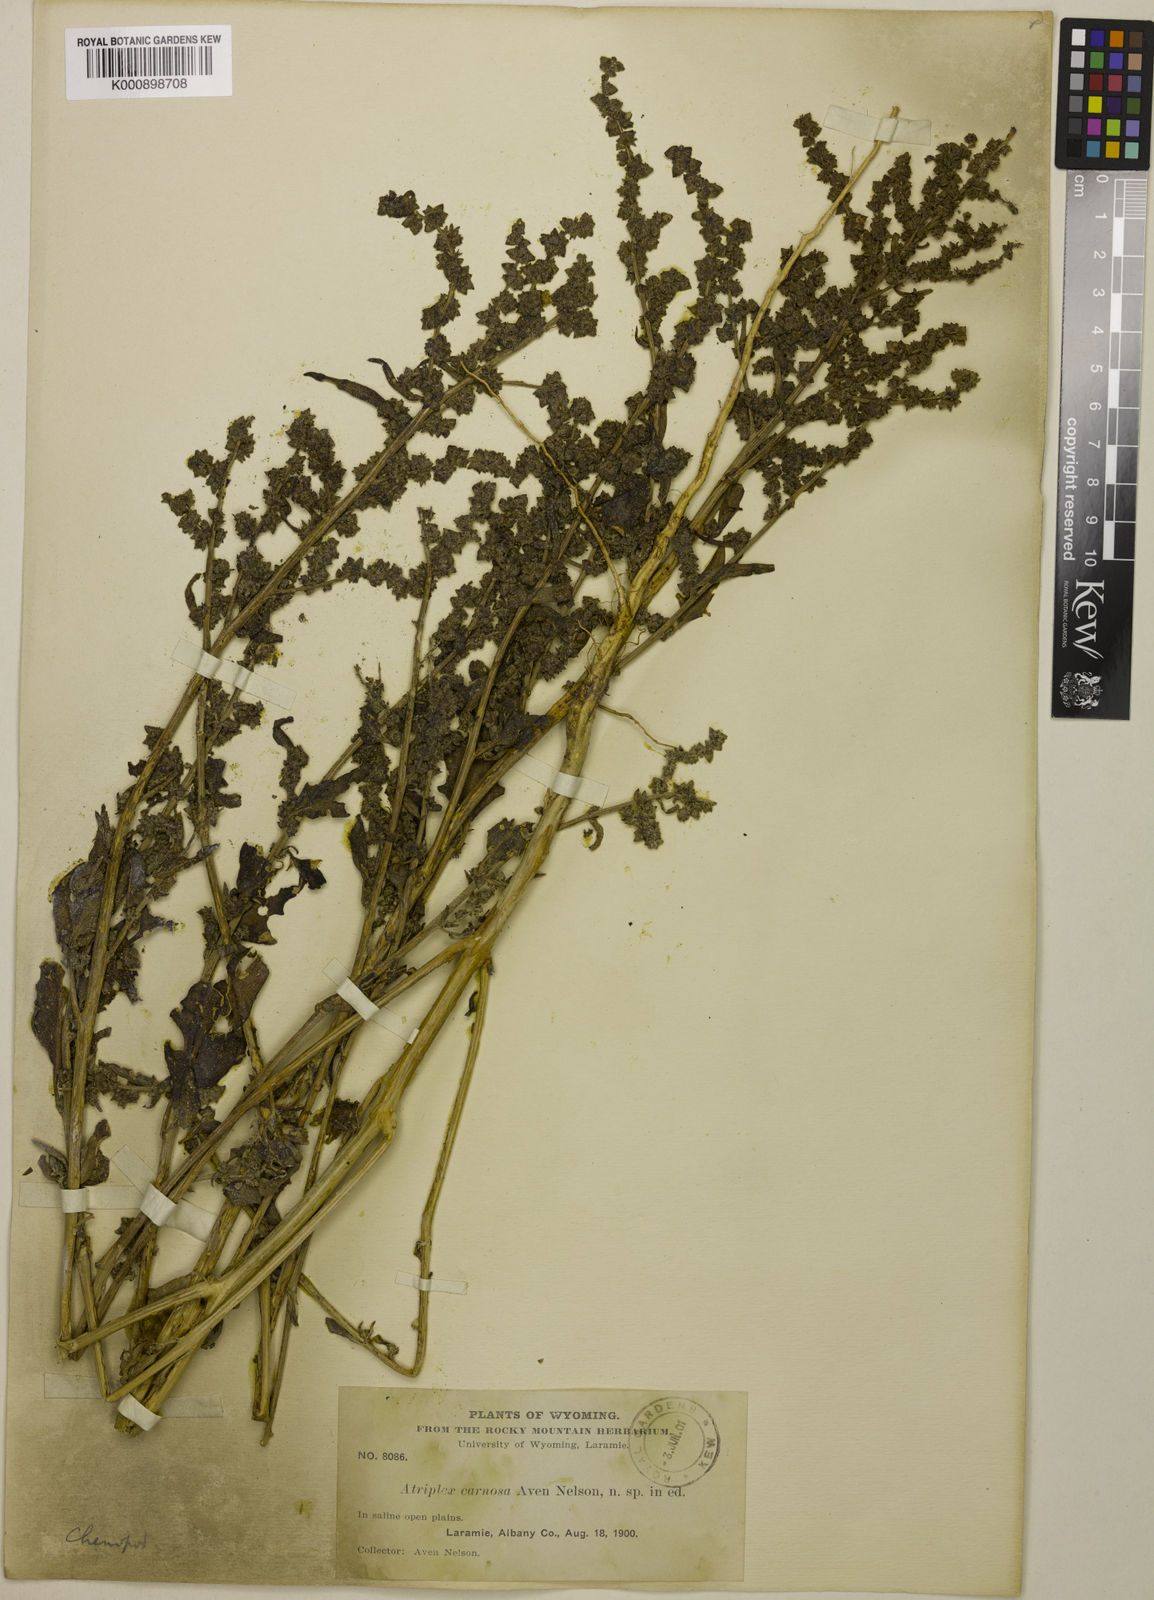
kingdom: Plantae
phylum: Tracheophyta
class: Magnoliopsida
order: Caryophyllales
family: Amaranthaceae
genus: Atriplex
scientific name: Atriplex carnosa
